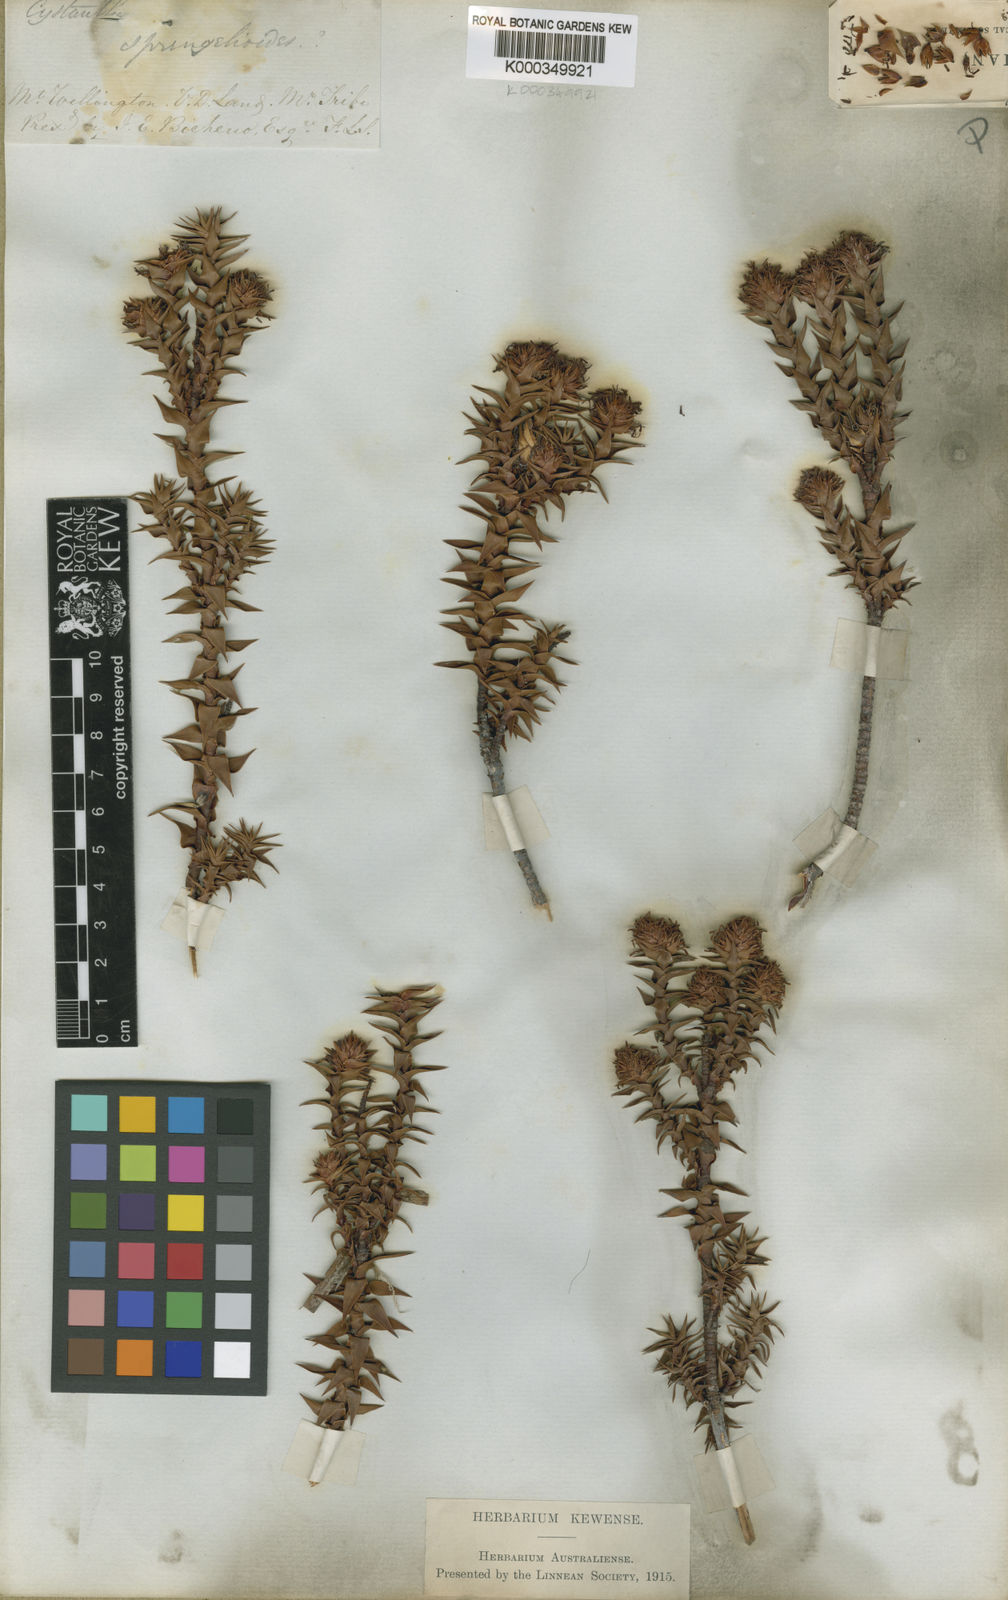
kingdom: Plantae
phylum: Tracheophyta
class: Magnoliopsida
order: Ericales
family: Ericaceae
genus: Dracophyllum
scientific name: Dracophyllum sprengelioides
